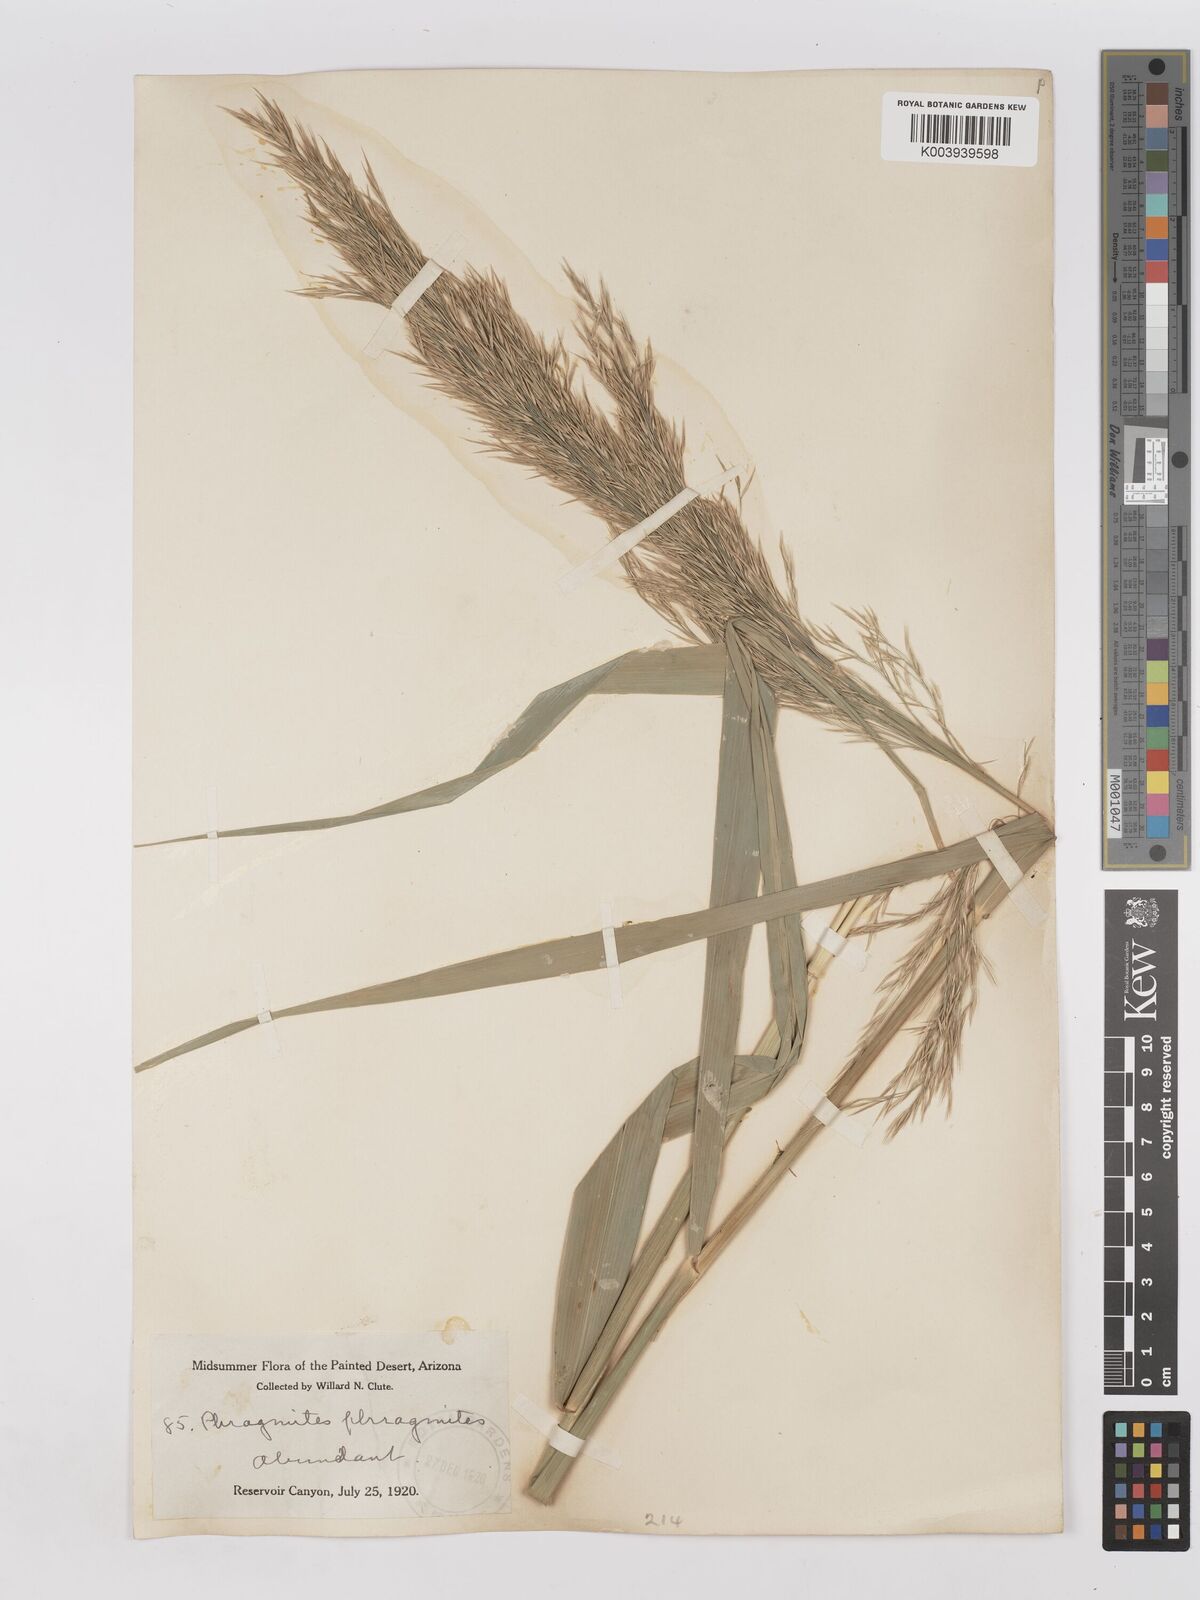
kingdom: Plantae
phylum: Tracheophyta
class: Liliopsida
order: Poales
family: Poaceae
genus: Phragmites
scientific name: Phragmites australis
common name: Common reed
